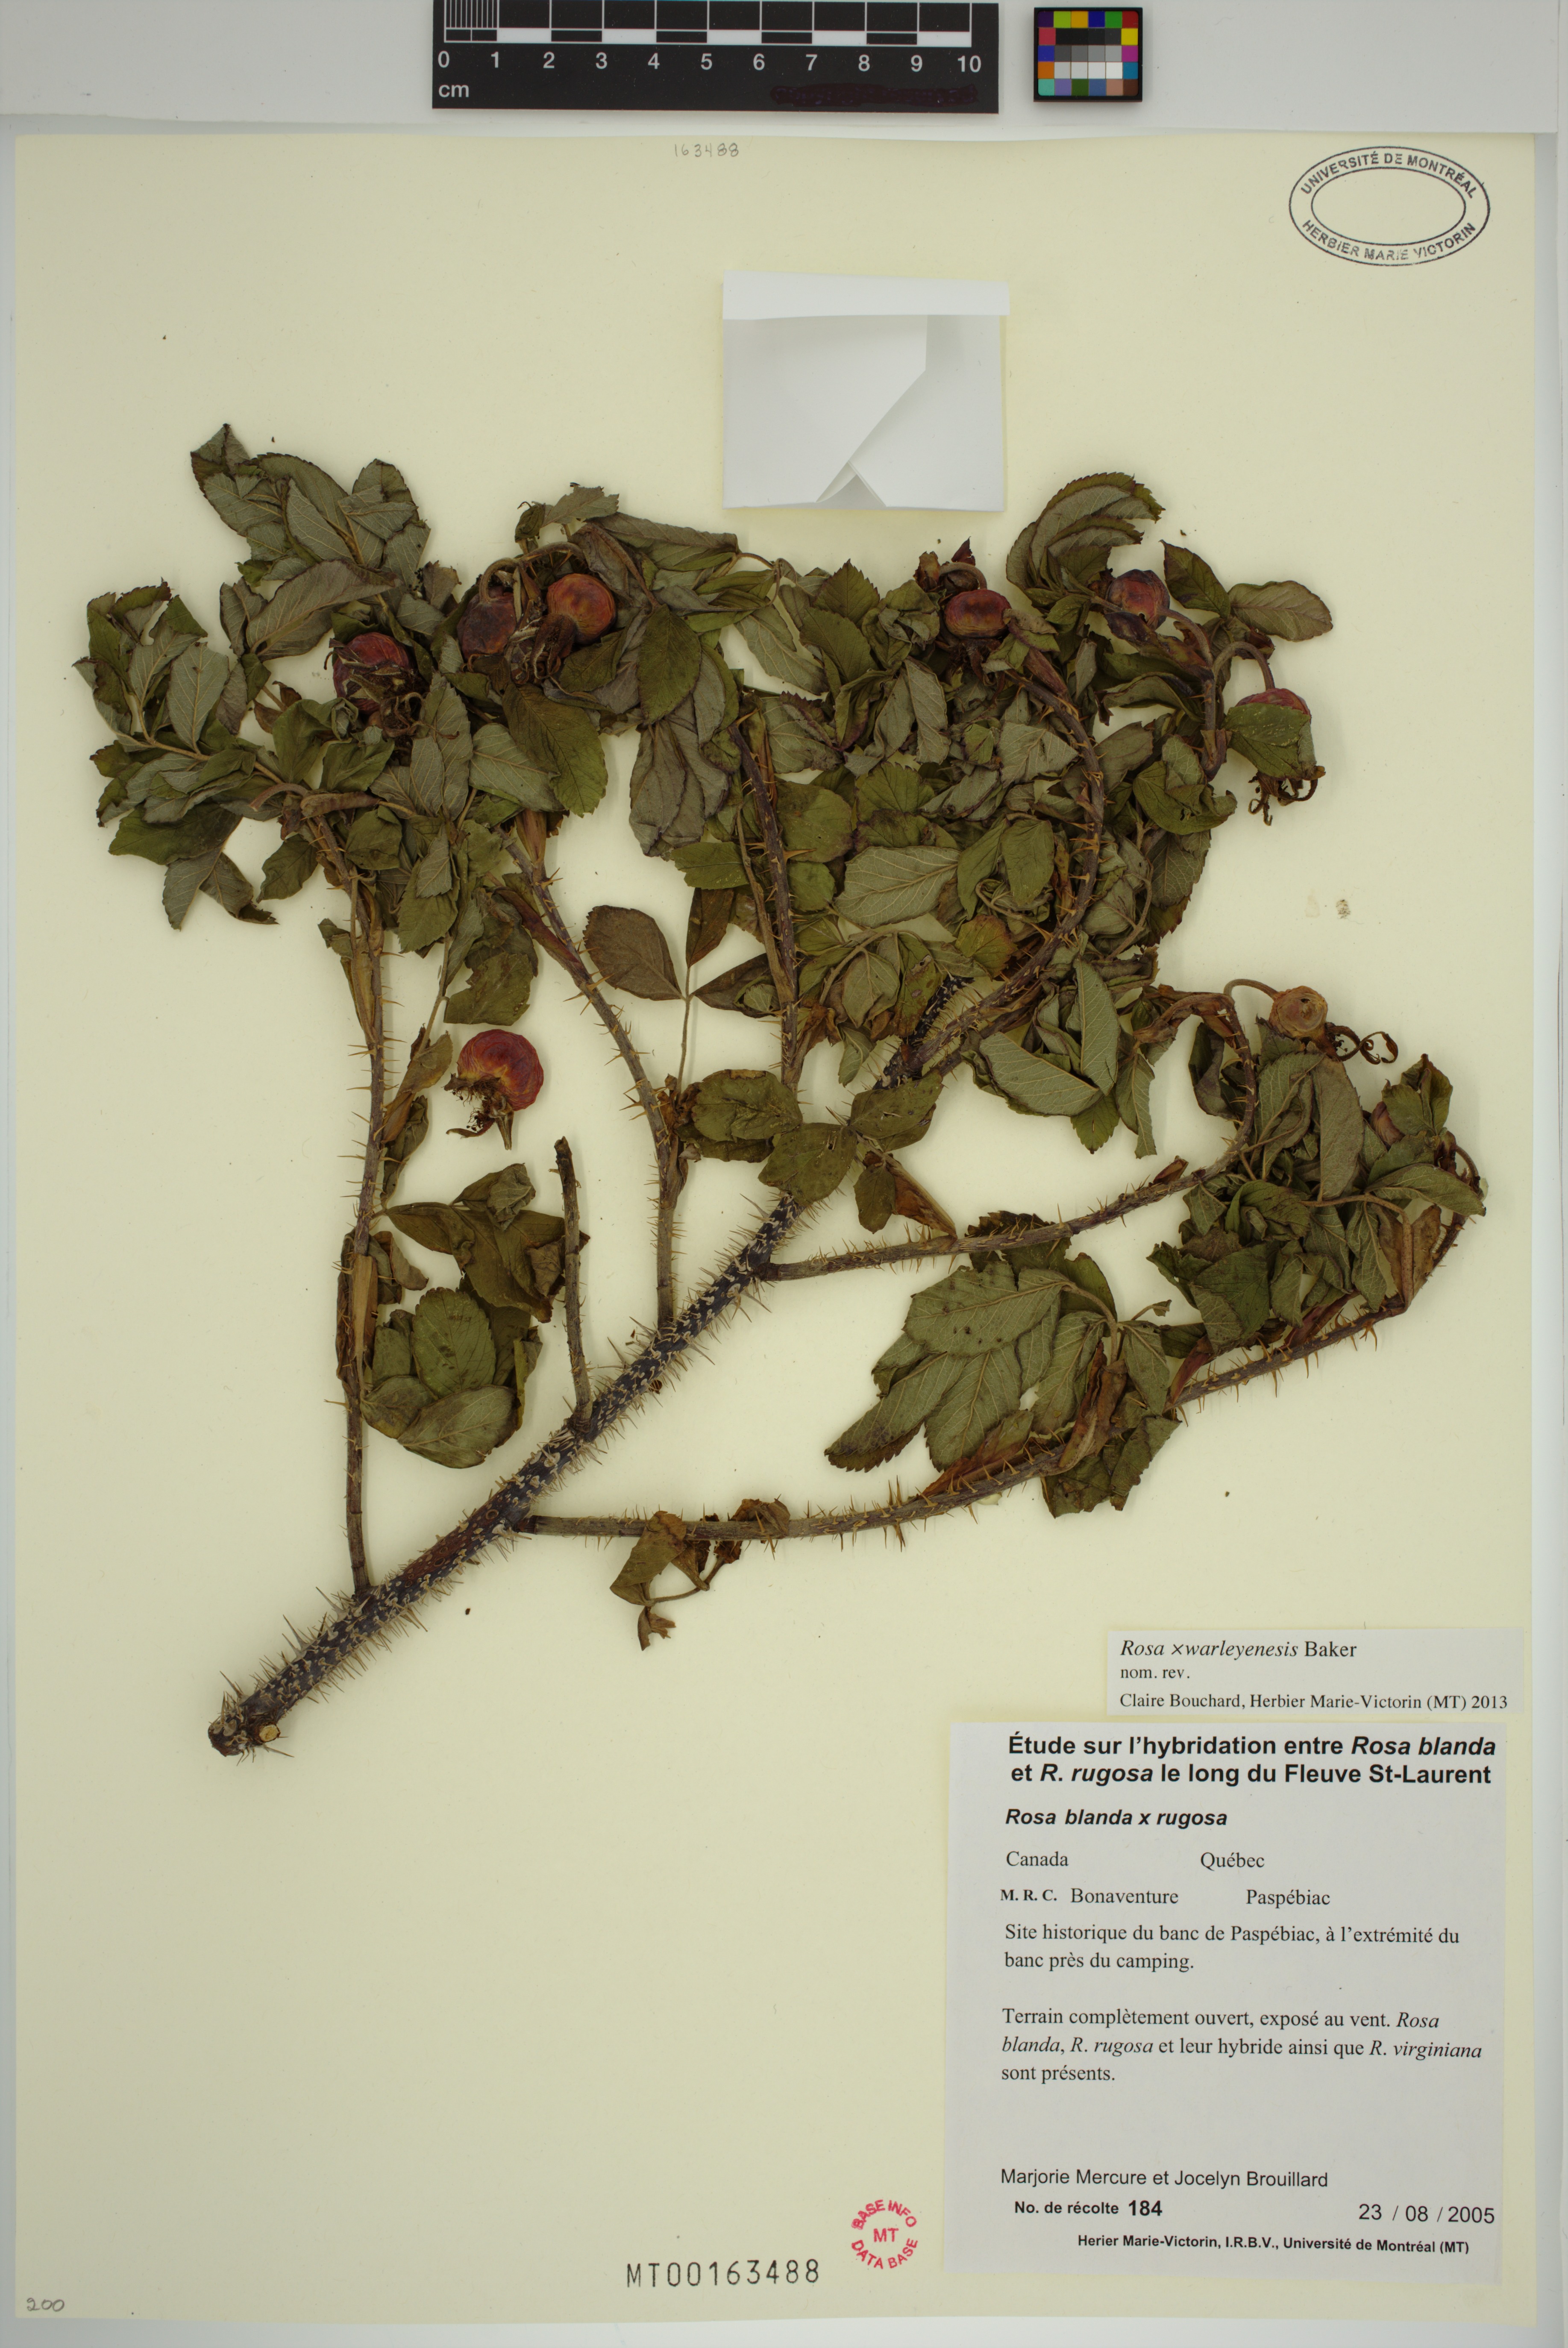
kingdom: Plantae
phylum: Tracheophyta
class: Magnoliopsida
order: Rosales
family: Rosaceae
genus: Rosa
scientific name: Rosa warleyensis
